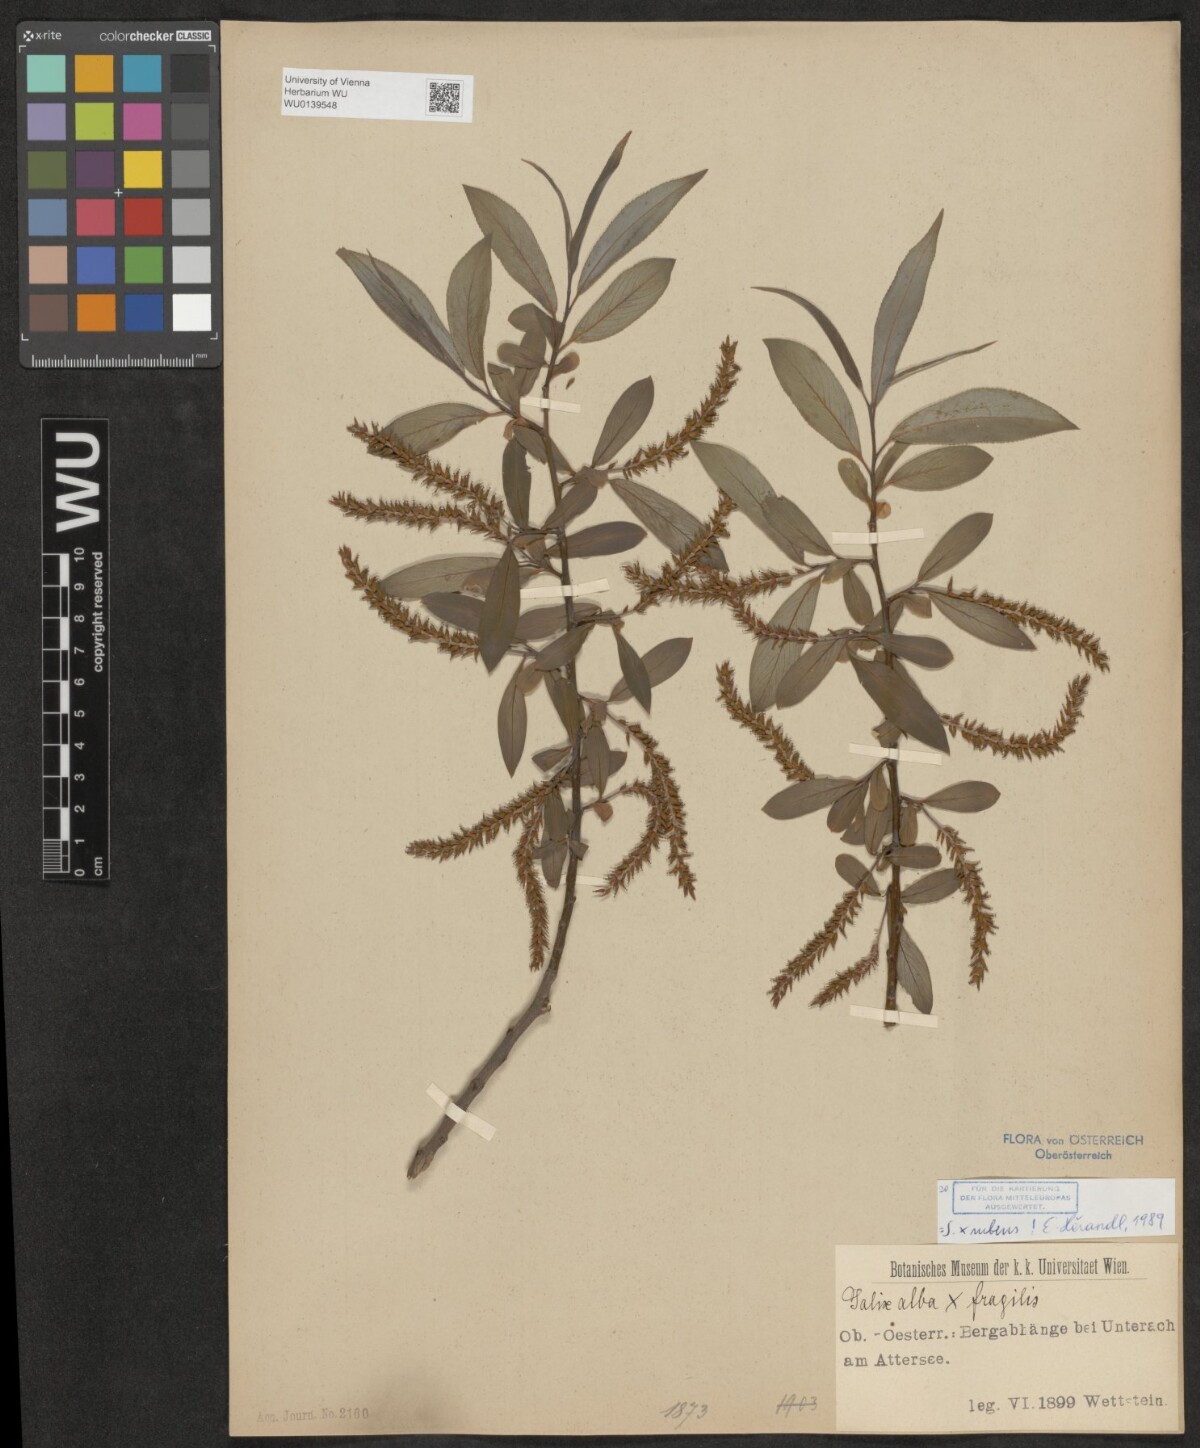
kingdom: Plantae
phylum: Tracheophyta
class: Magnoliopsida
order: Malpighiales
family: Salicaceae
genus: Salix
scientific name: Salix rubens
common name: Hybrid crack willow
